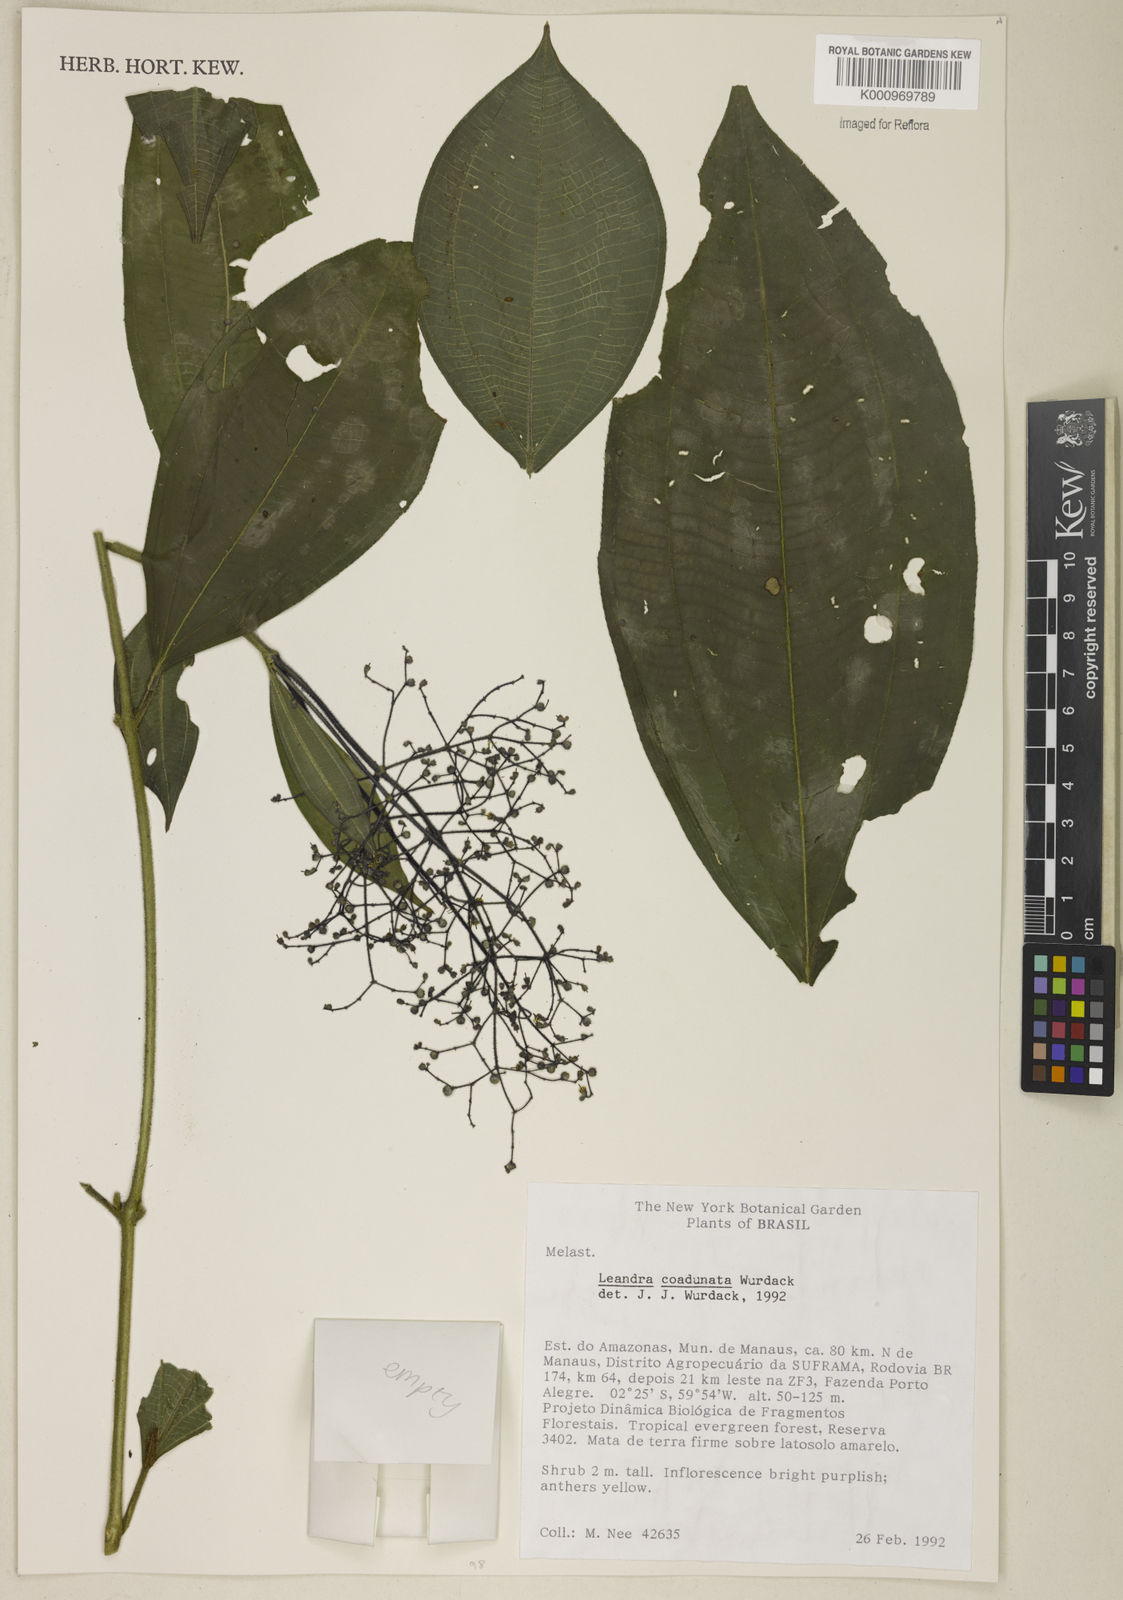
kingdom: Plantae
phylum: Tracheophyta
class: Magnoliopsida
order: Myrtales
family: Melastomataceae
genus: Miconia
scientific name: Miconia coadunata
